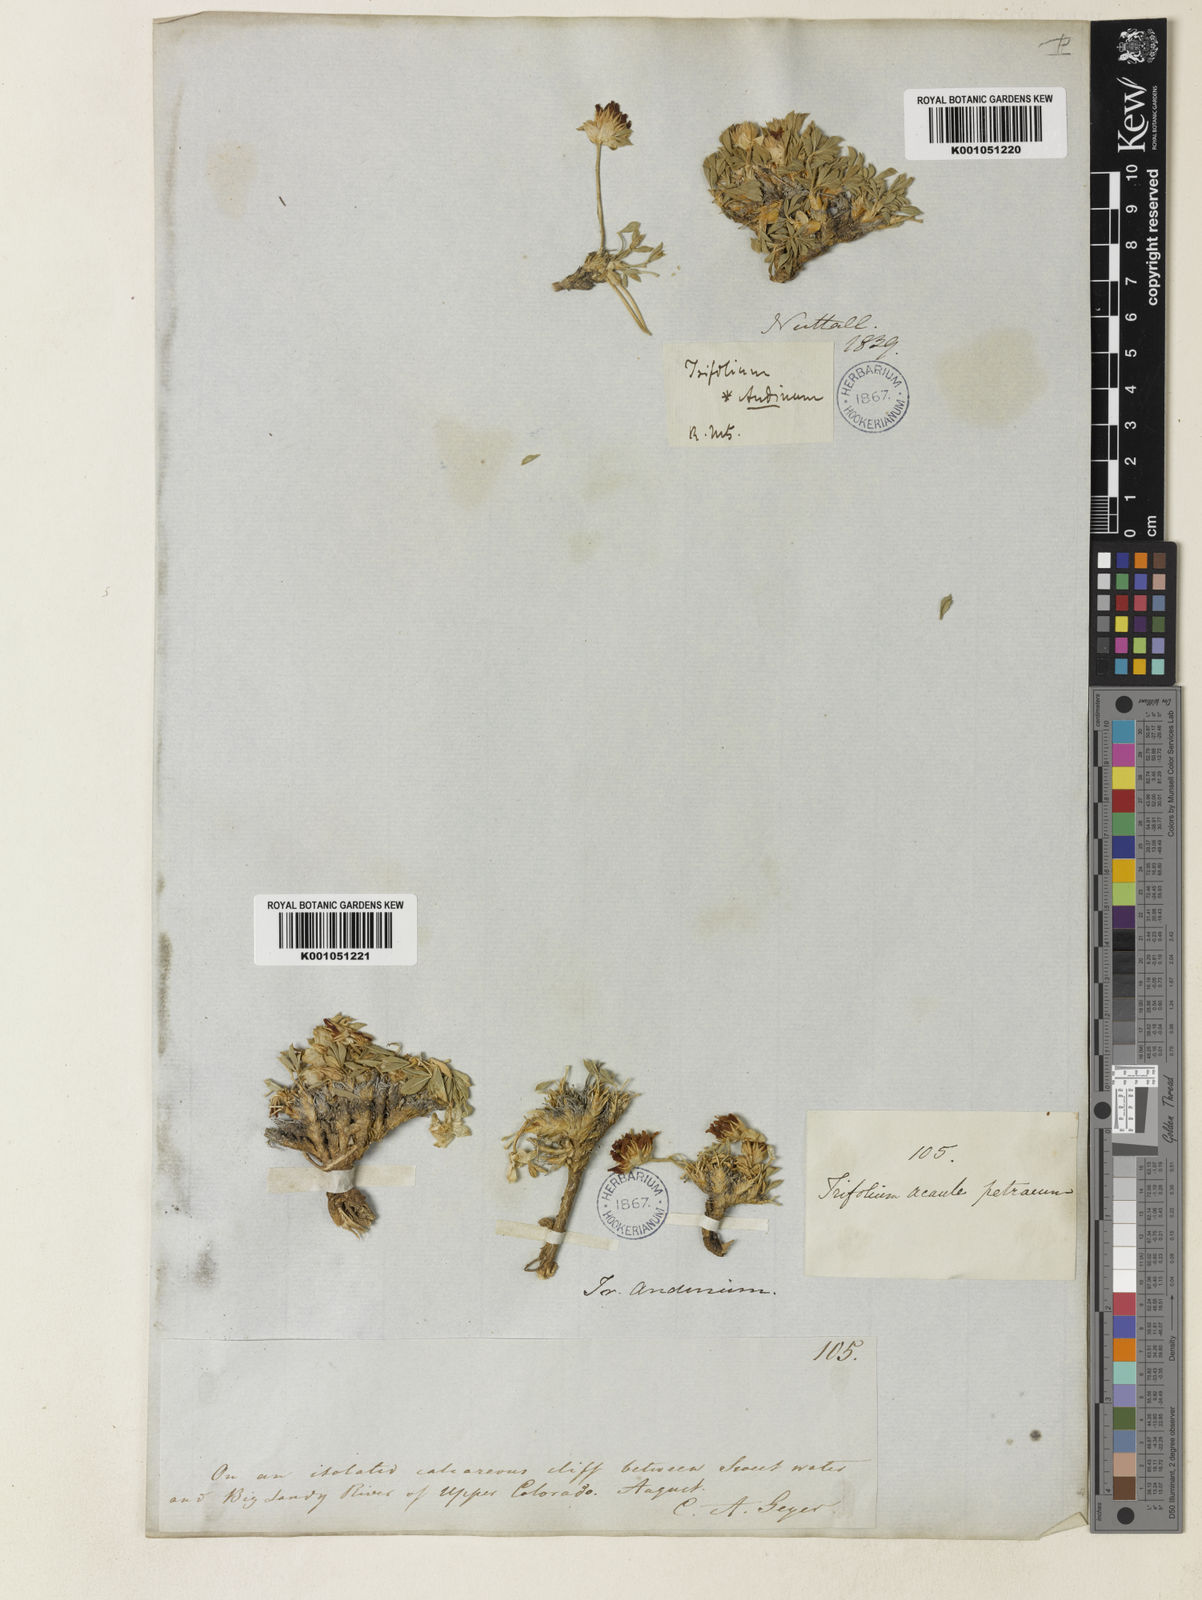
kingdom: Plantae
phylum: Tracheophyta
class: Magnoliopsida
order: Fabales
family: Fabaceae
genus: Trifolium
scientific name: Trifolium andinum
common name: Andean clover
